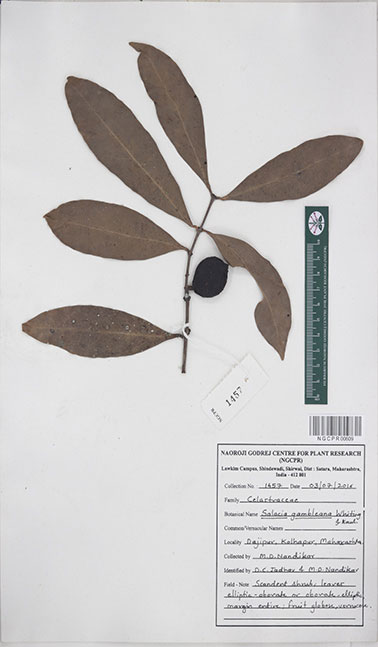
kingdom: Plantae
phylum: Tracheophyta
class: Magnoliopsida
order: Celastrales
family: Celastraceae
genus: Salacia
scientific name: Salacia gambleana
